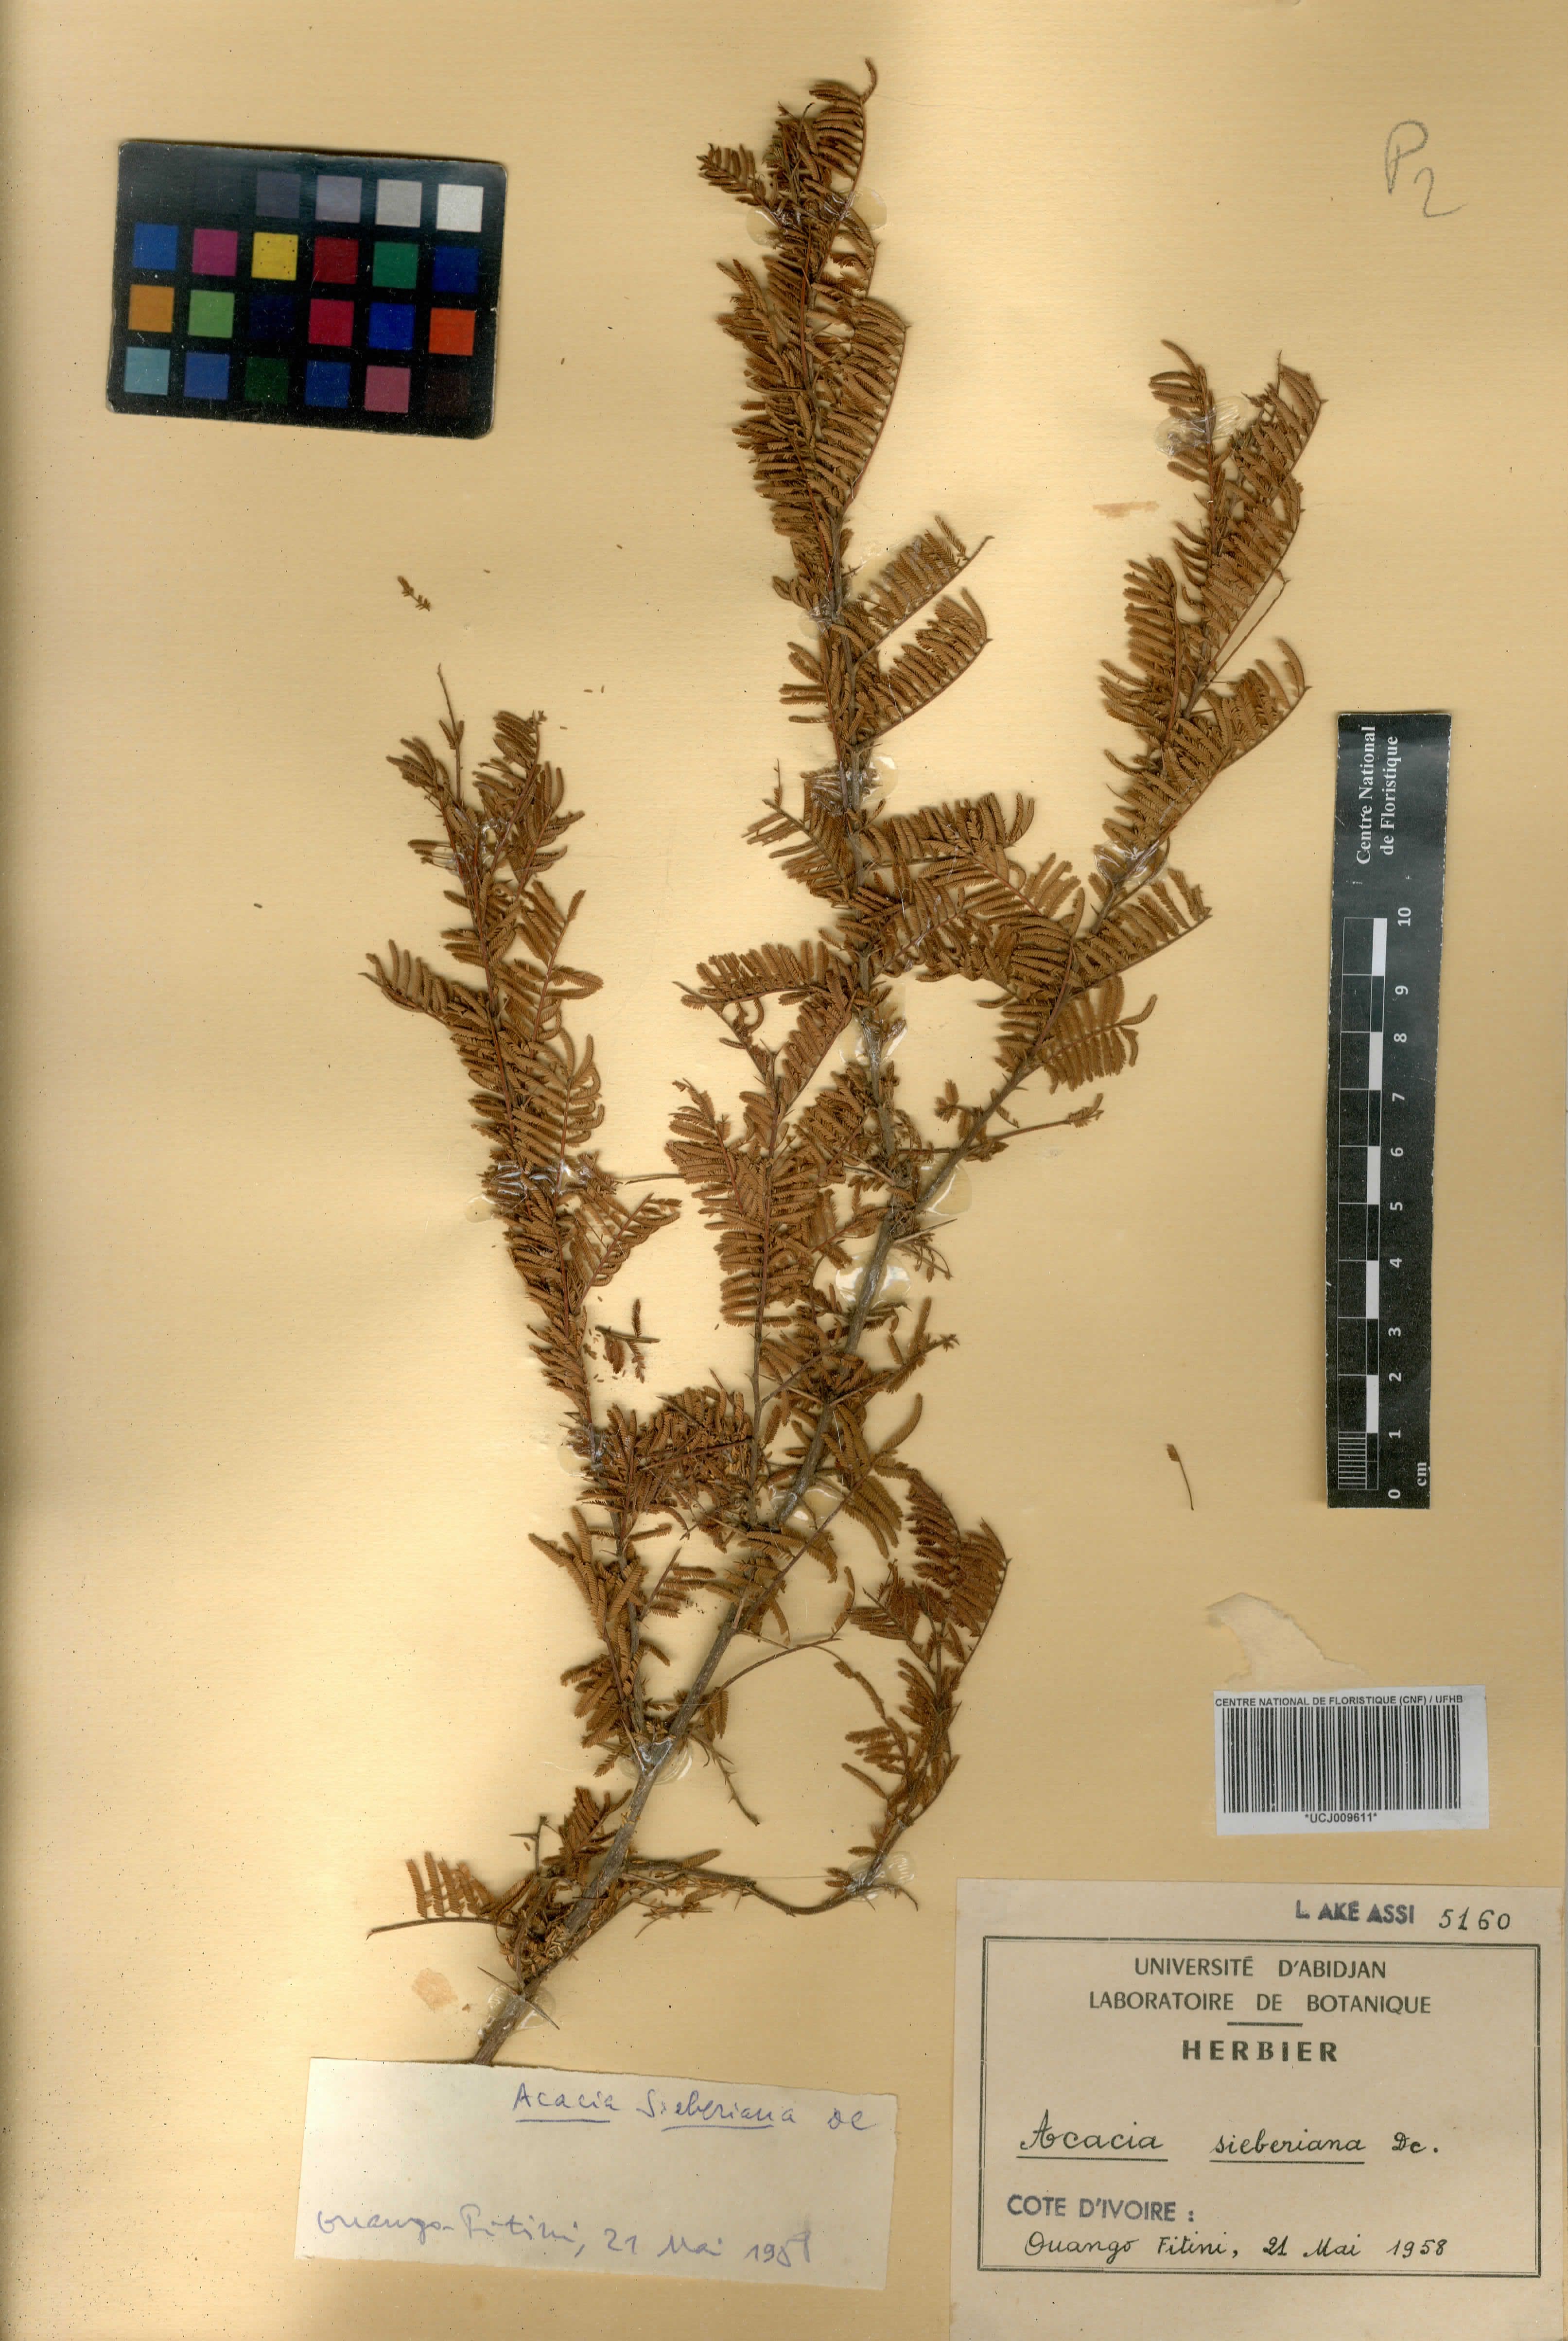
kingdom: Plantae
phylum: Tracheophyta
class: Magnoliopsida
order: Fabales
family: Fabaceae
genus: Vachellia
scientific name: Vachellia sieberiana
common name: Flat-topped thorn
